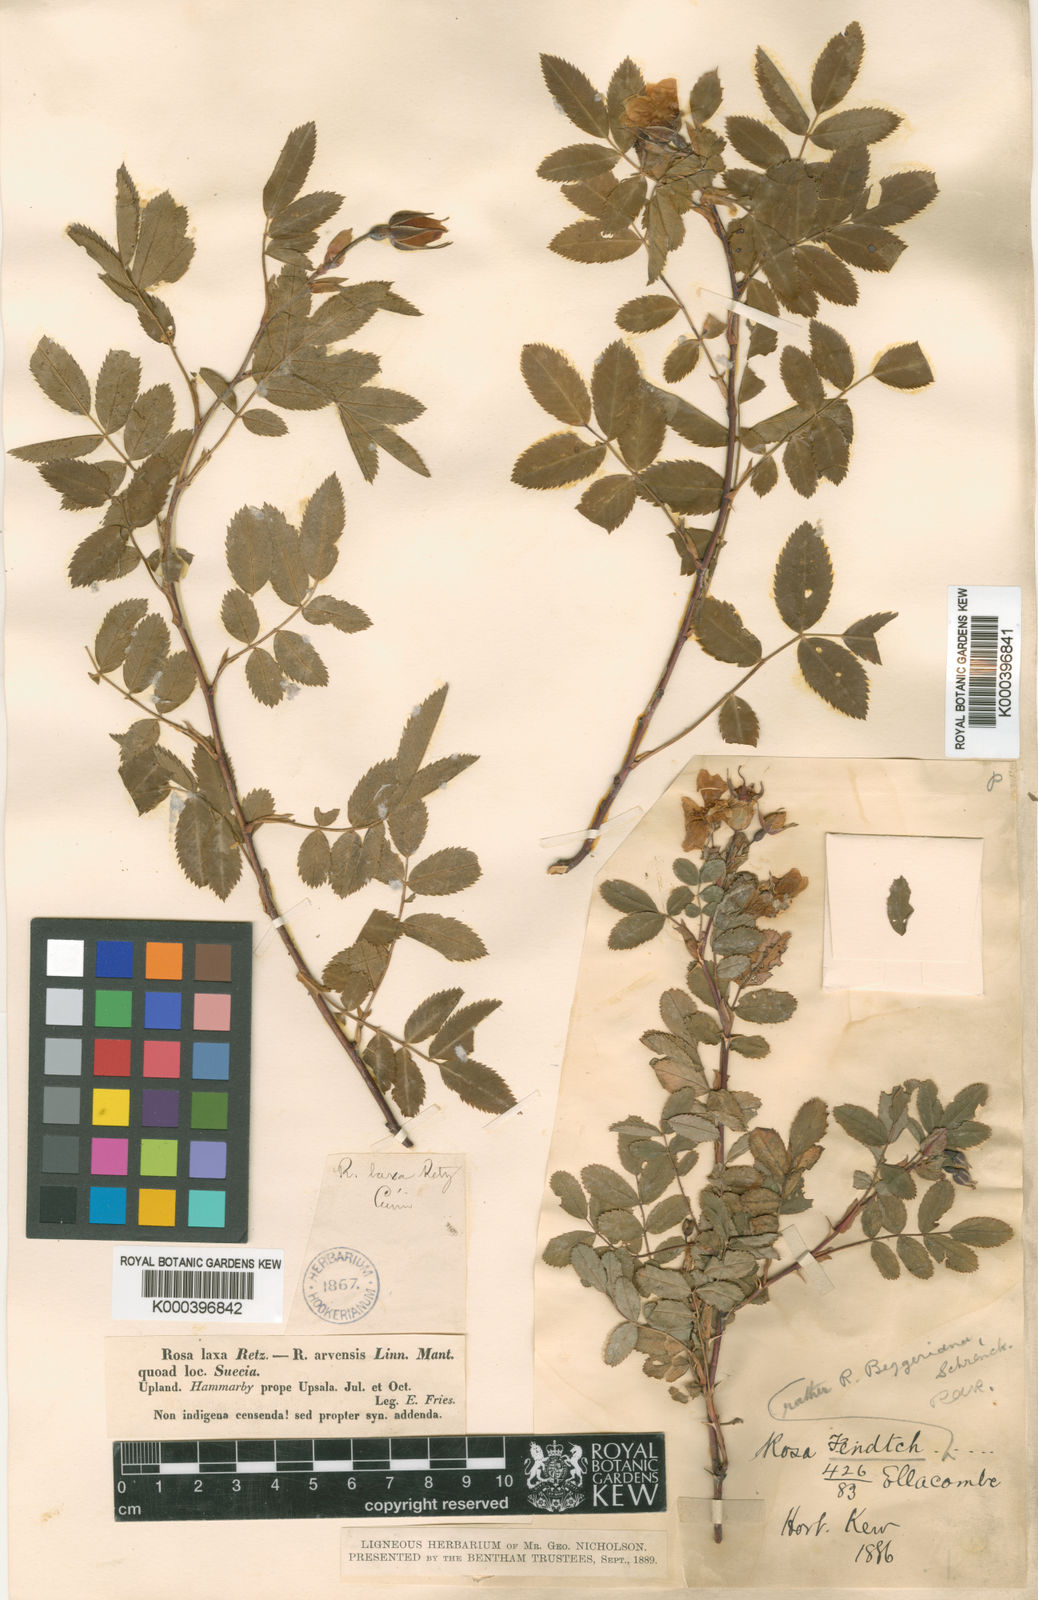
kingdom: Plantae
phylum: Tracheophyta
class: Magnoliopsida
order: Rosales
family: Rosaceae
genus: Rosa
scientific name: Rosa beggeriana
